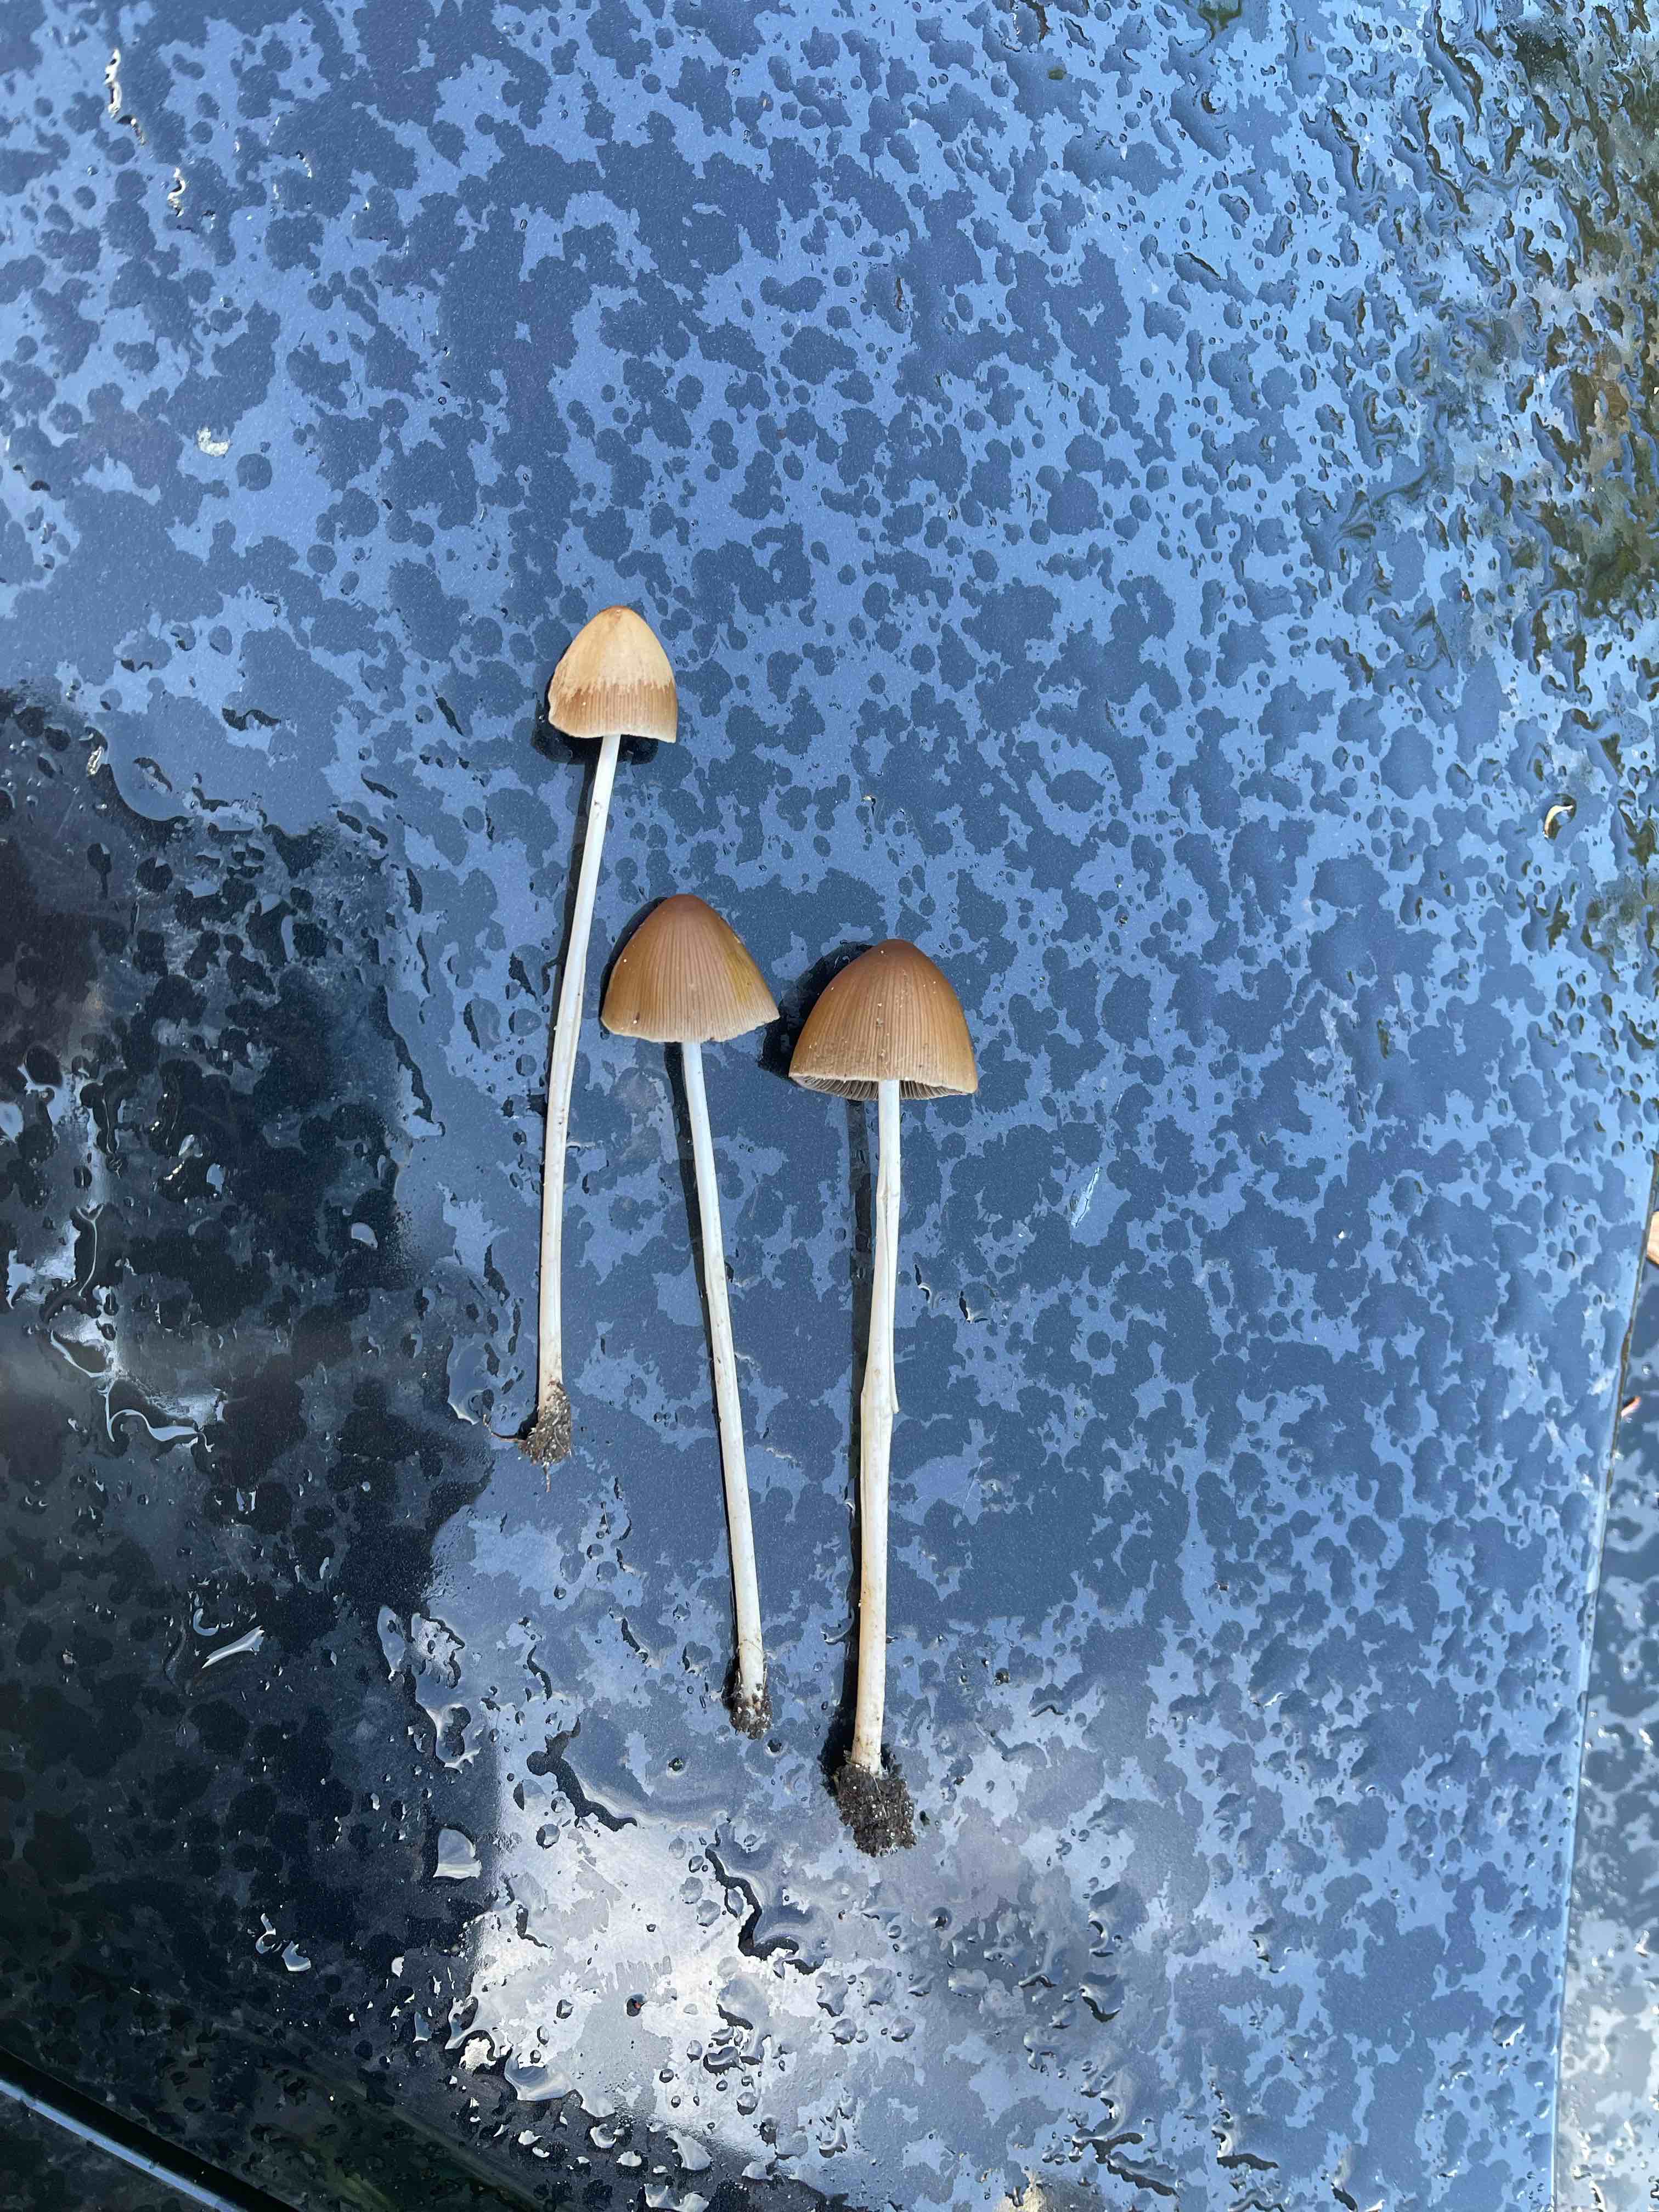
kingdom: Fungi
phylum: Basidiomycota
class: Agaricomycetes
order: Agaricales
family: Psathyrellaceae
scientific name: Psathyrellaceae
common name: mørkhatfamilien
